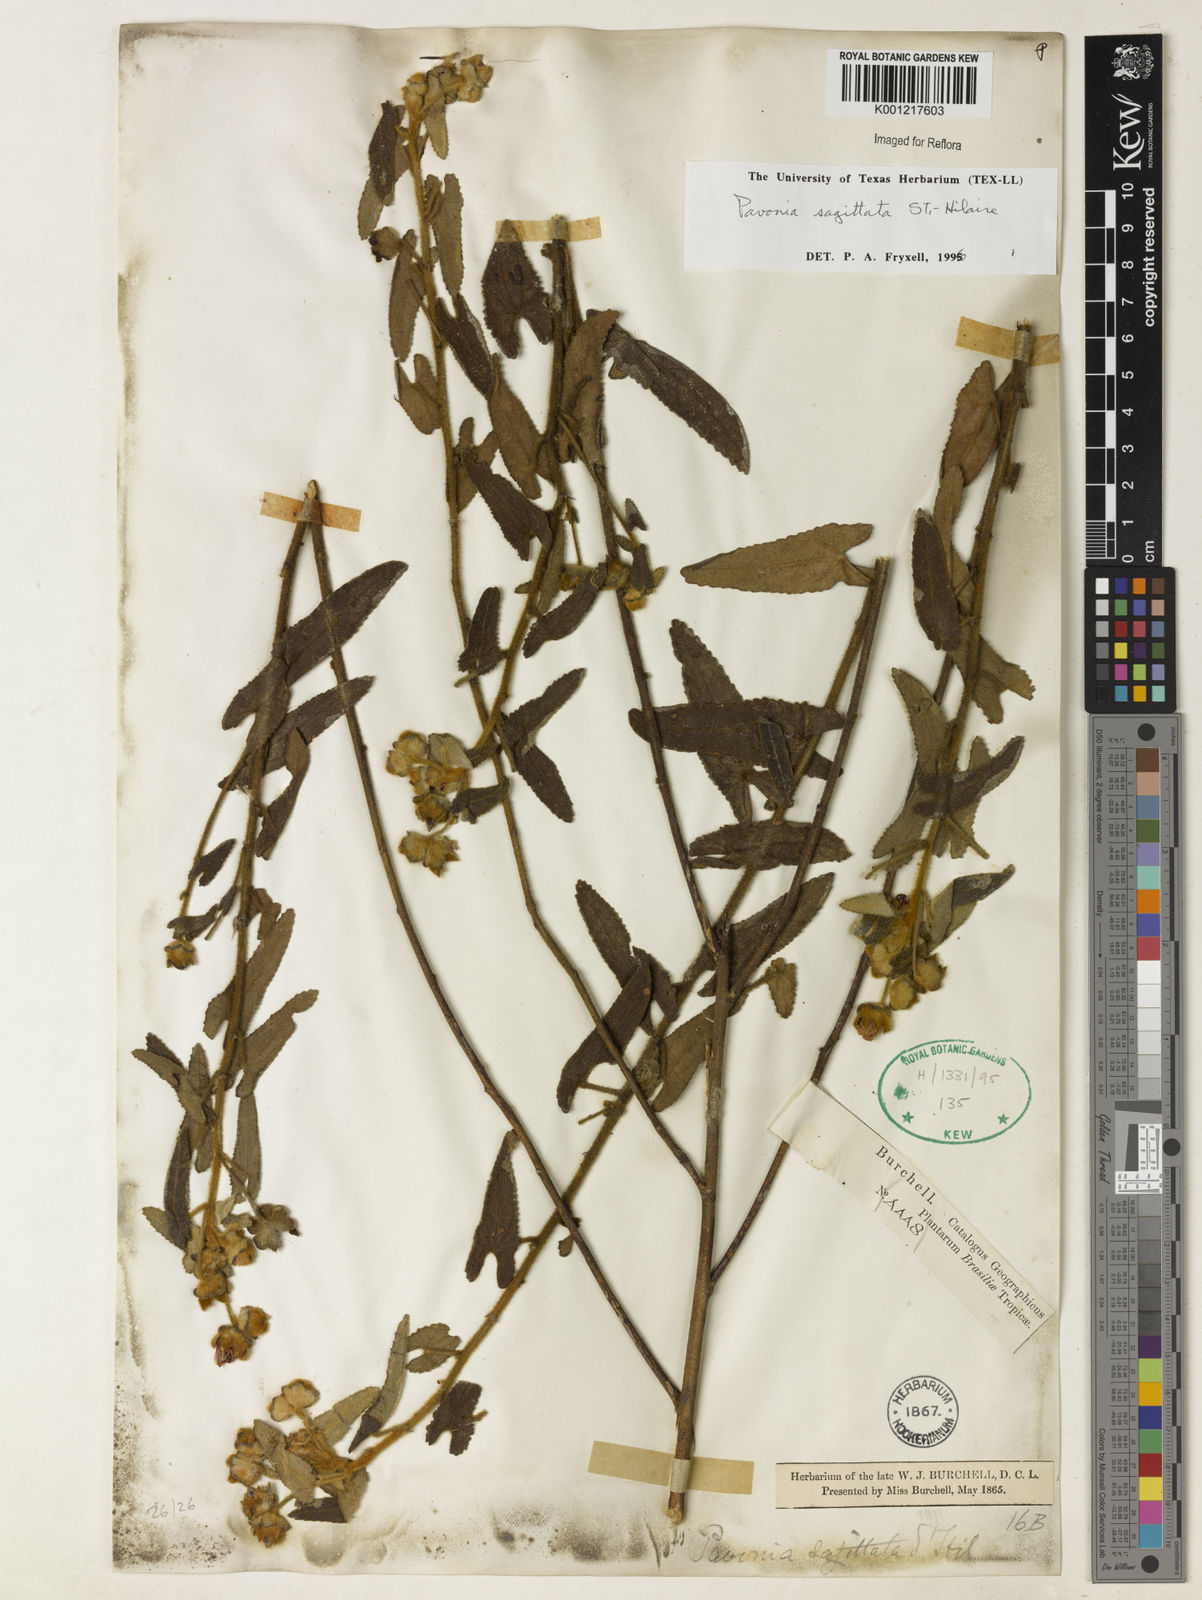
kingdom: Plantae
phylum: Tracheophyta
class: Magnoliopsida
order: Malvales
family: Malvaceae
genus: Pavonia
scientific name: Pavonia
